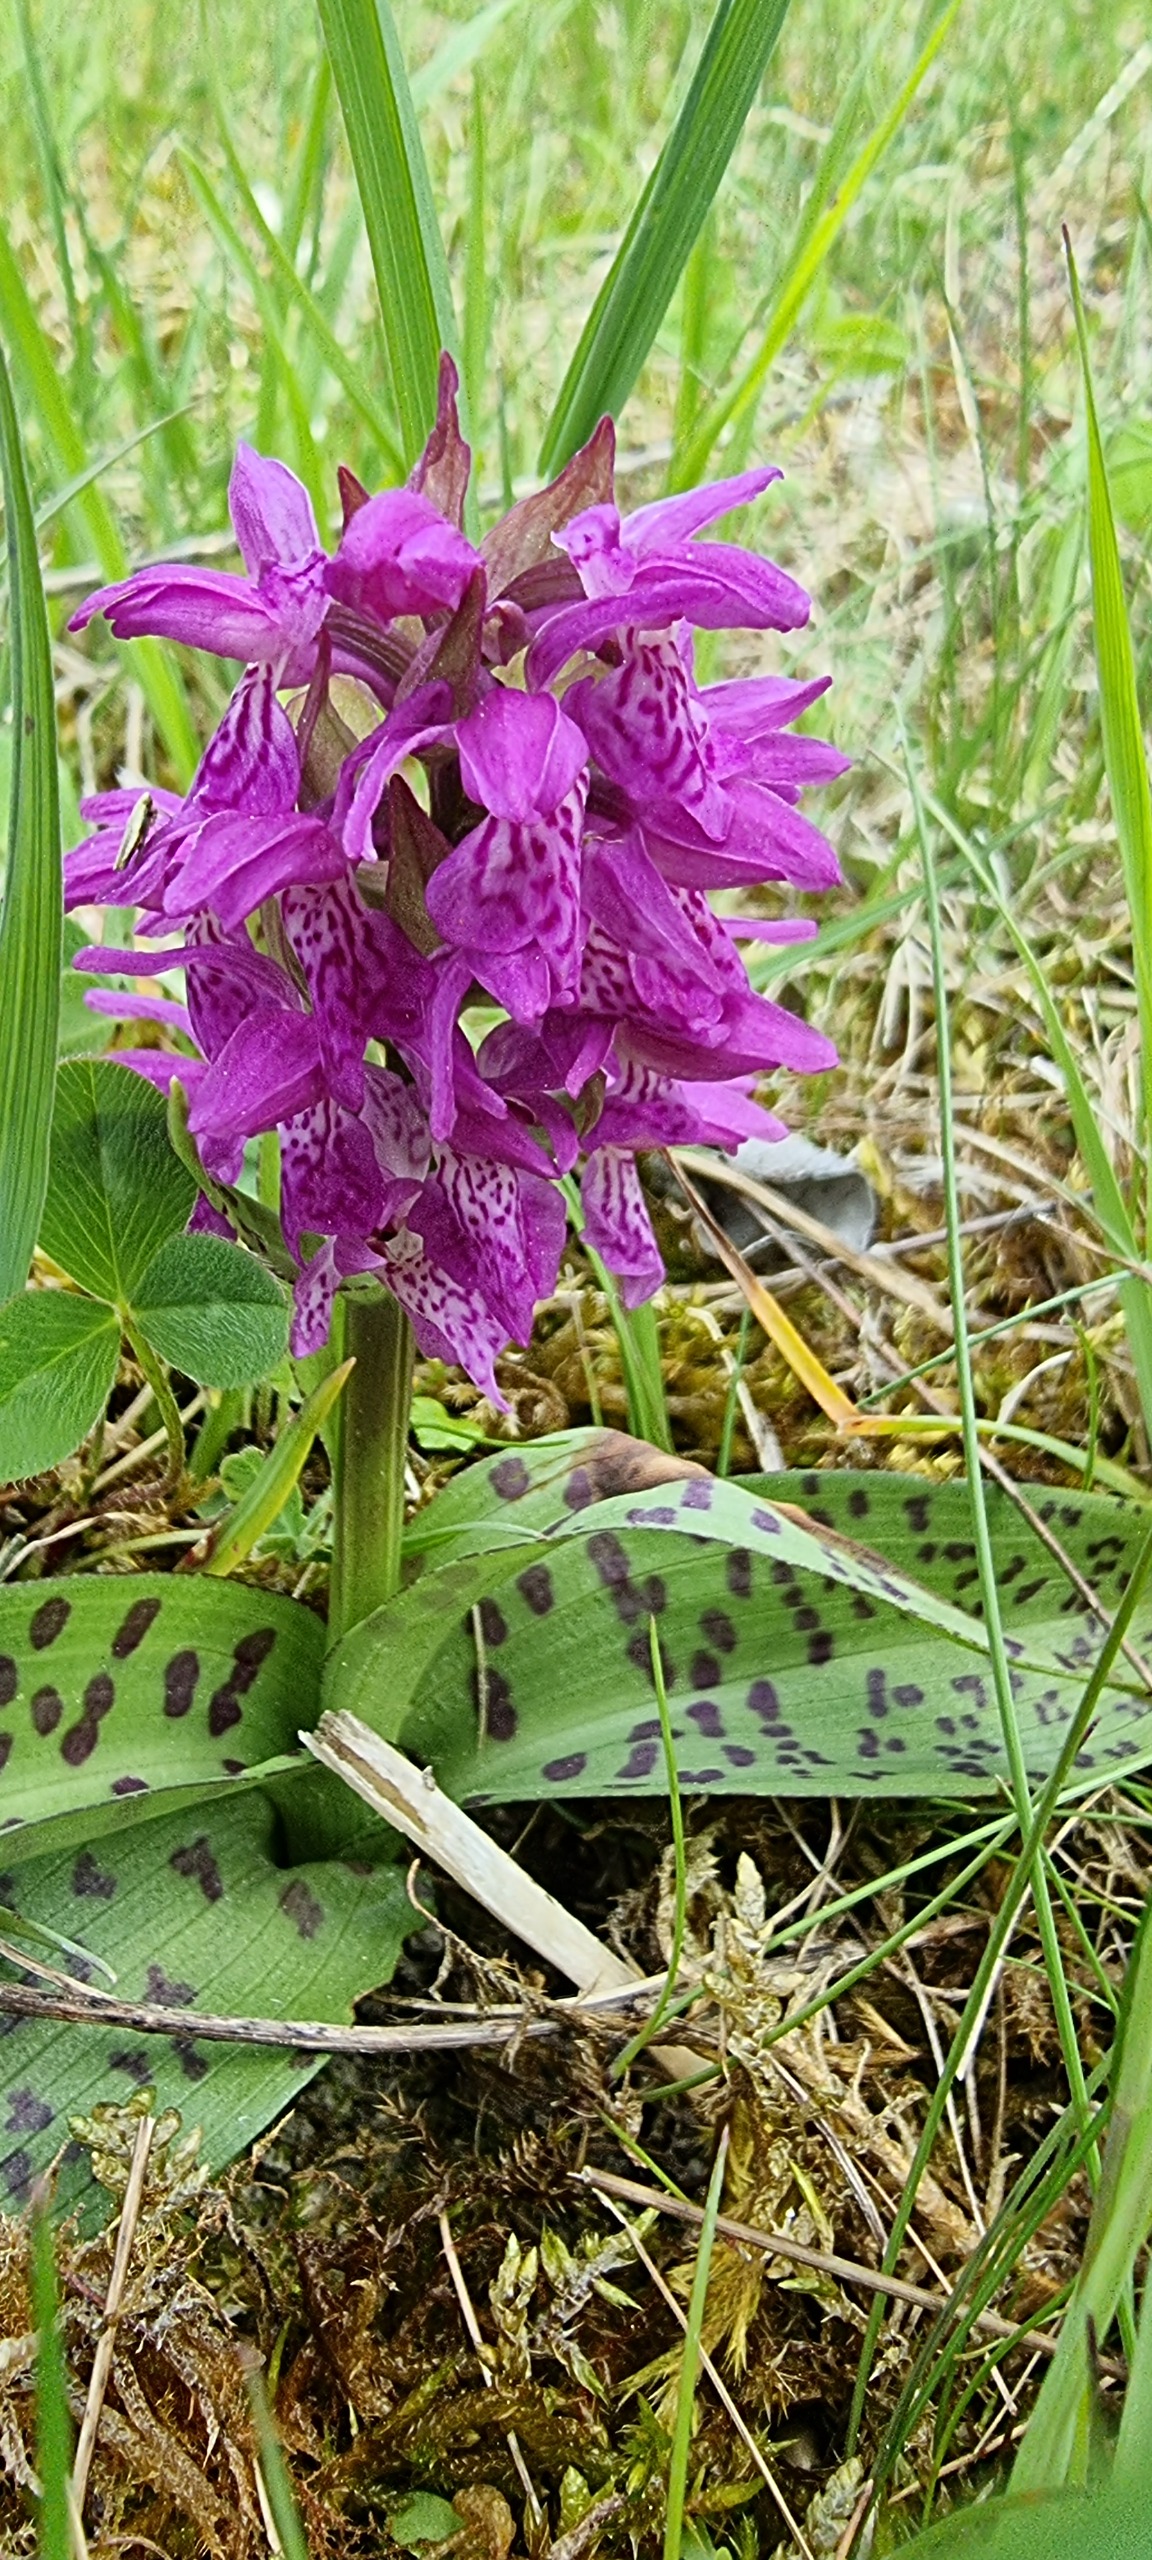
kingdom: Plantae
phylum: Tracheophyta
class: Liliopsida
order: Asparagales
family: Orchidaceae
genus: Dactylorhiza
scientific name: Dactylorhiza majalis
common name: Maj-gøgeurt
